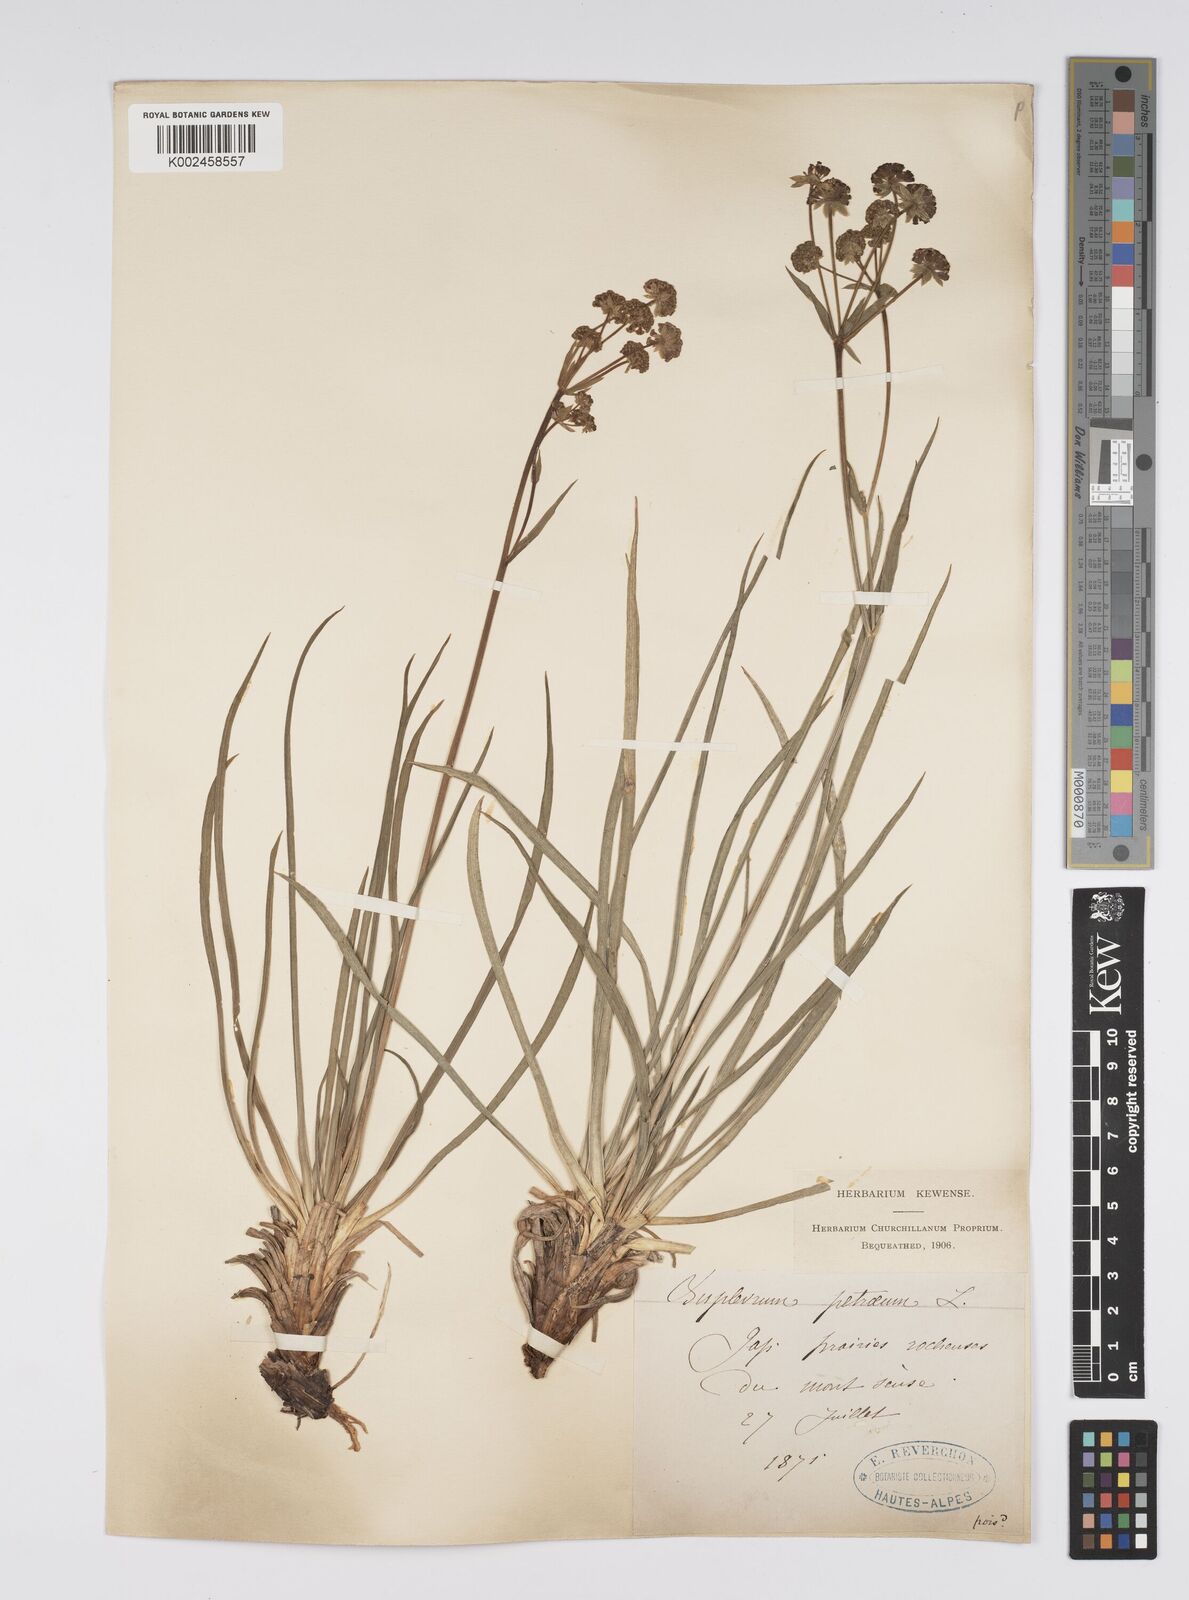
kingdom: Plantae
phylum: Tracheophyta
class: Magnoliopsida
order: Apiales
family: Apiaceae
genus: Bupleurum
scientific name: Bupleurum petraeum
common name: Rock hare's-ear
